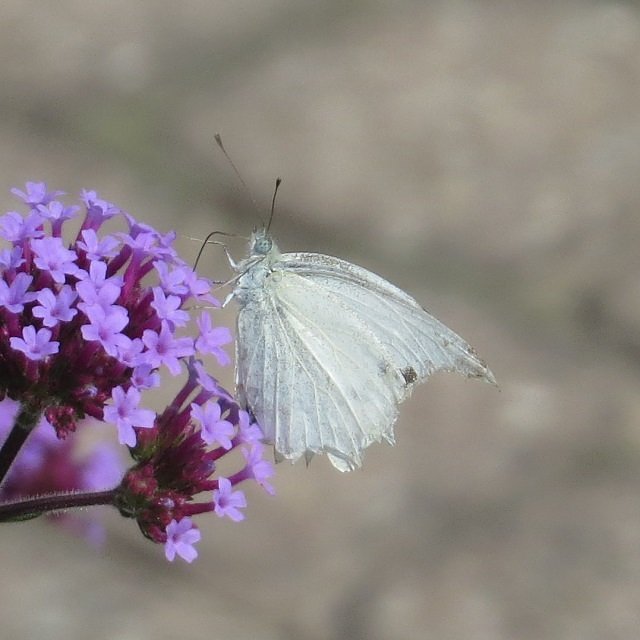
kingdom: Animalia
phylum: Arthropoda
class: Insecta
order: Lepidoptera
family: Pieridae
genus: Pieris
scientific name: Pieris rapae
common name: Cabbage White
